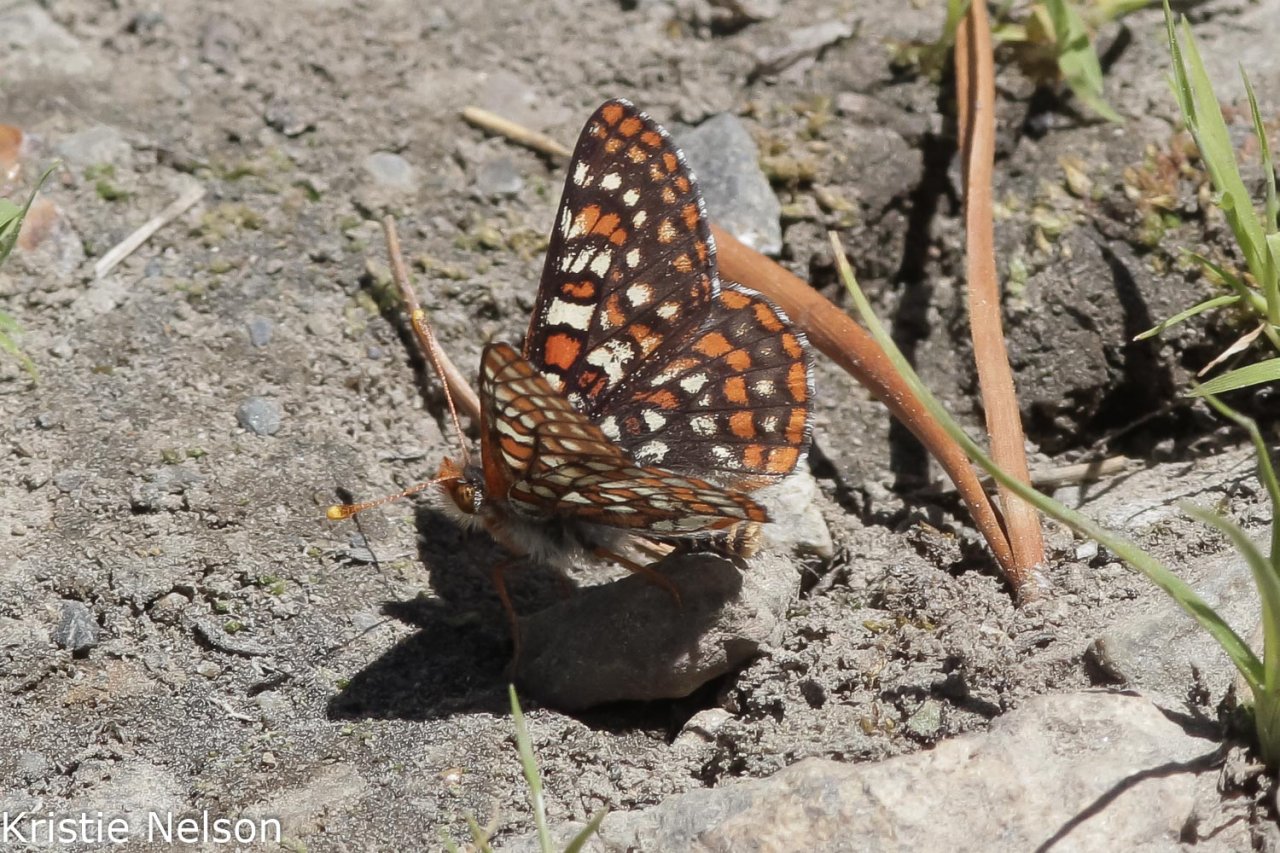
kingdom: Animalia
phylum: Arthropoda
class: Insecta
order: Lepidoptera
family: Nymphalidae
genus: Occidryas
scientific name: Occidryas editha
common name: Edith's Checkerspot
